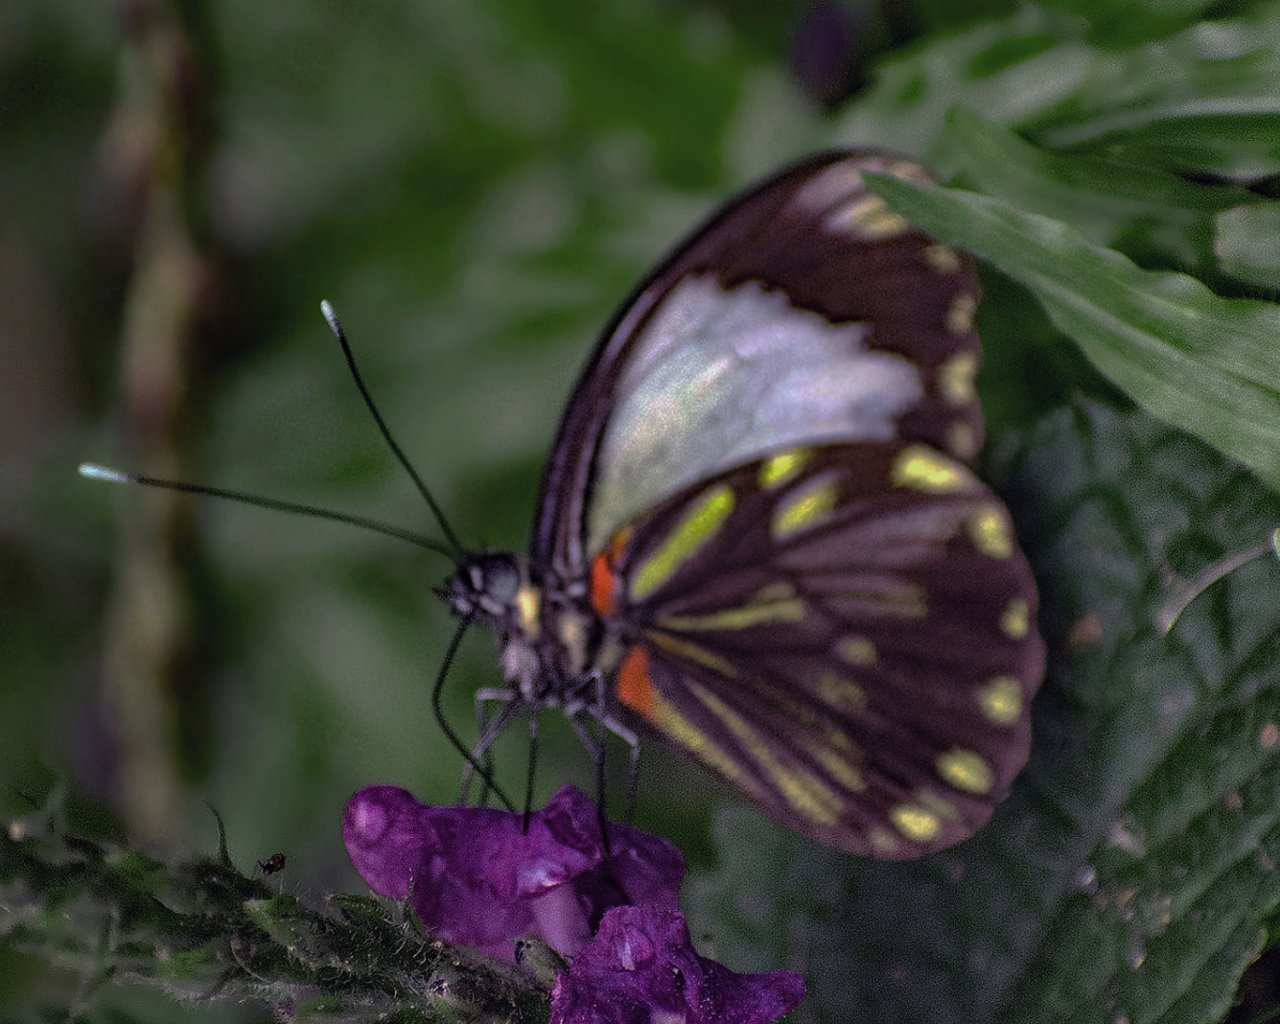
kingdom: Animalia
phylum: Arthropoda
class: Insecta
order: Lepidoptera
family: Pieridae
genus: Pieriballia
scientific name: Pieriballia viardi
